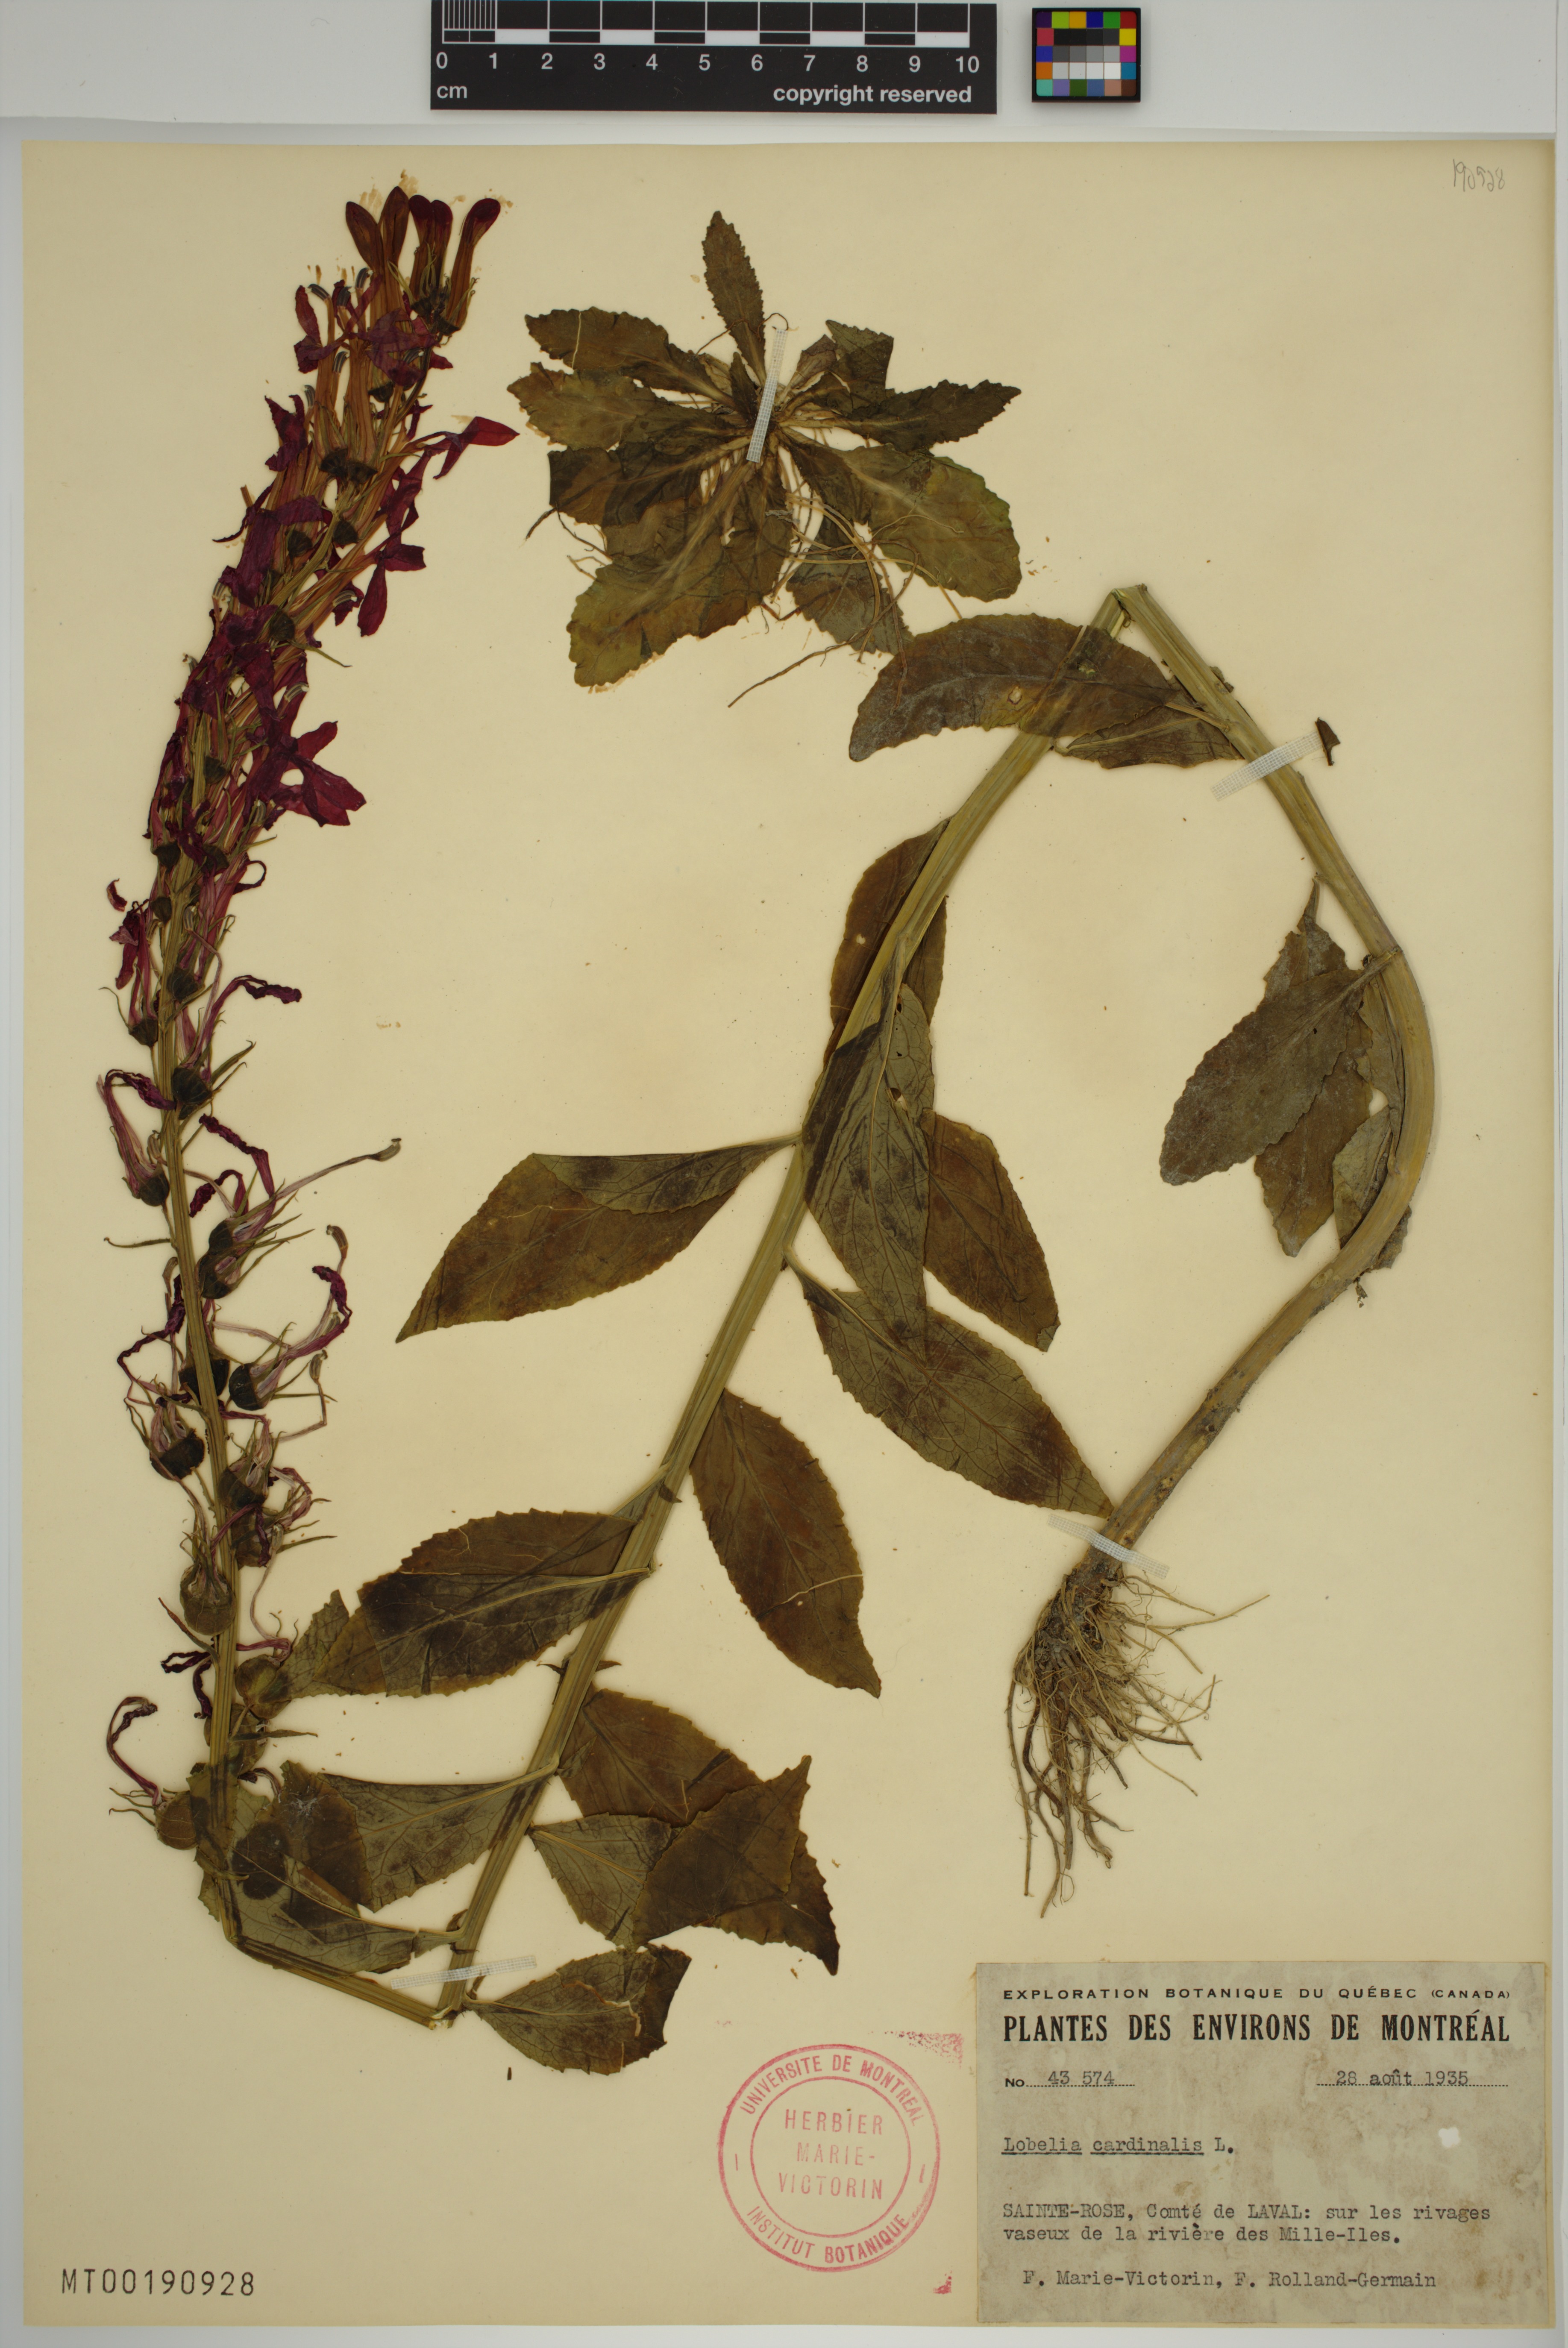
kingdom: Plantae
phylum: Tracheophyta
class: Magnoliopsida
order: Asterales
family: Campanulaceae
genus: Lobelia
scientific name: Lobelia cardinalis
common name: Cardinal flower
